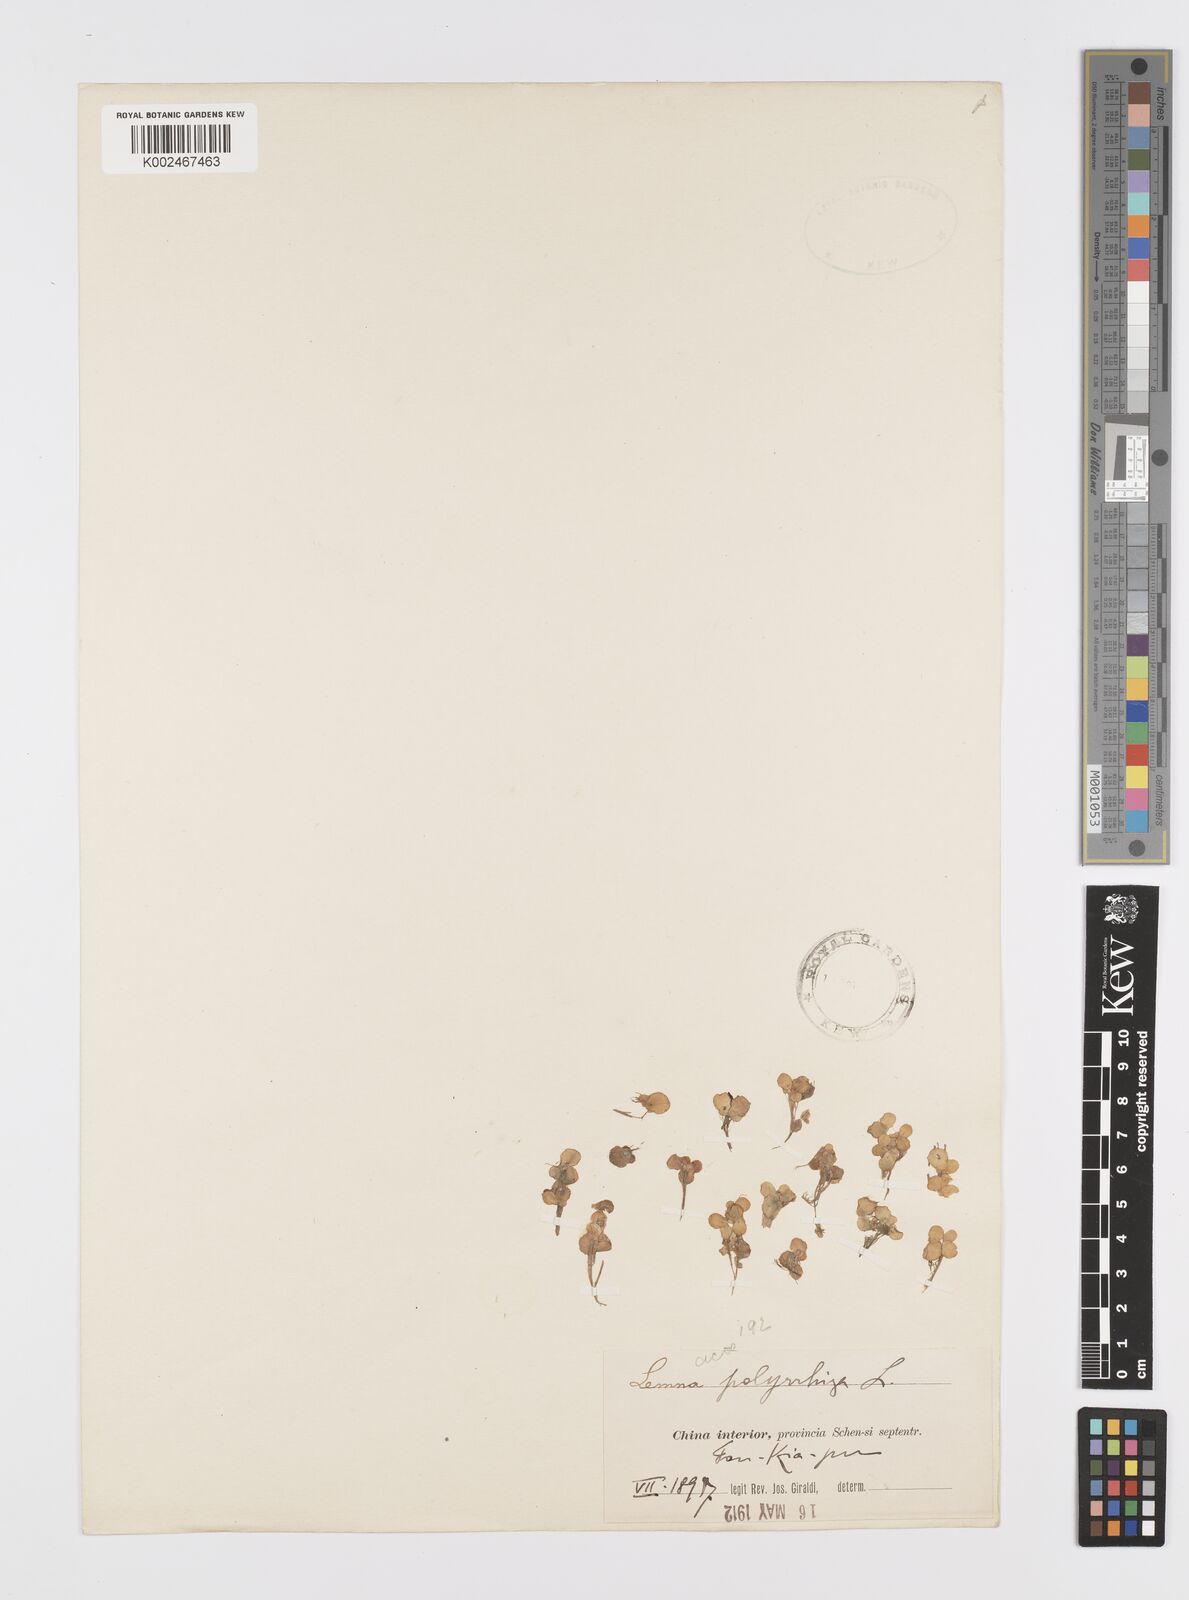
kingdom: Plantae
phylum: Tracheophyta
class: Liliopsida
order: Alismatales
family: Araceae
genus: Spirodela
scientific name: Spirodela polyrhiza
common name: Great duckweed
